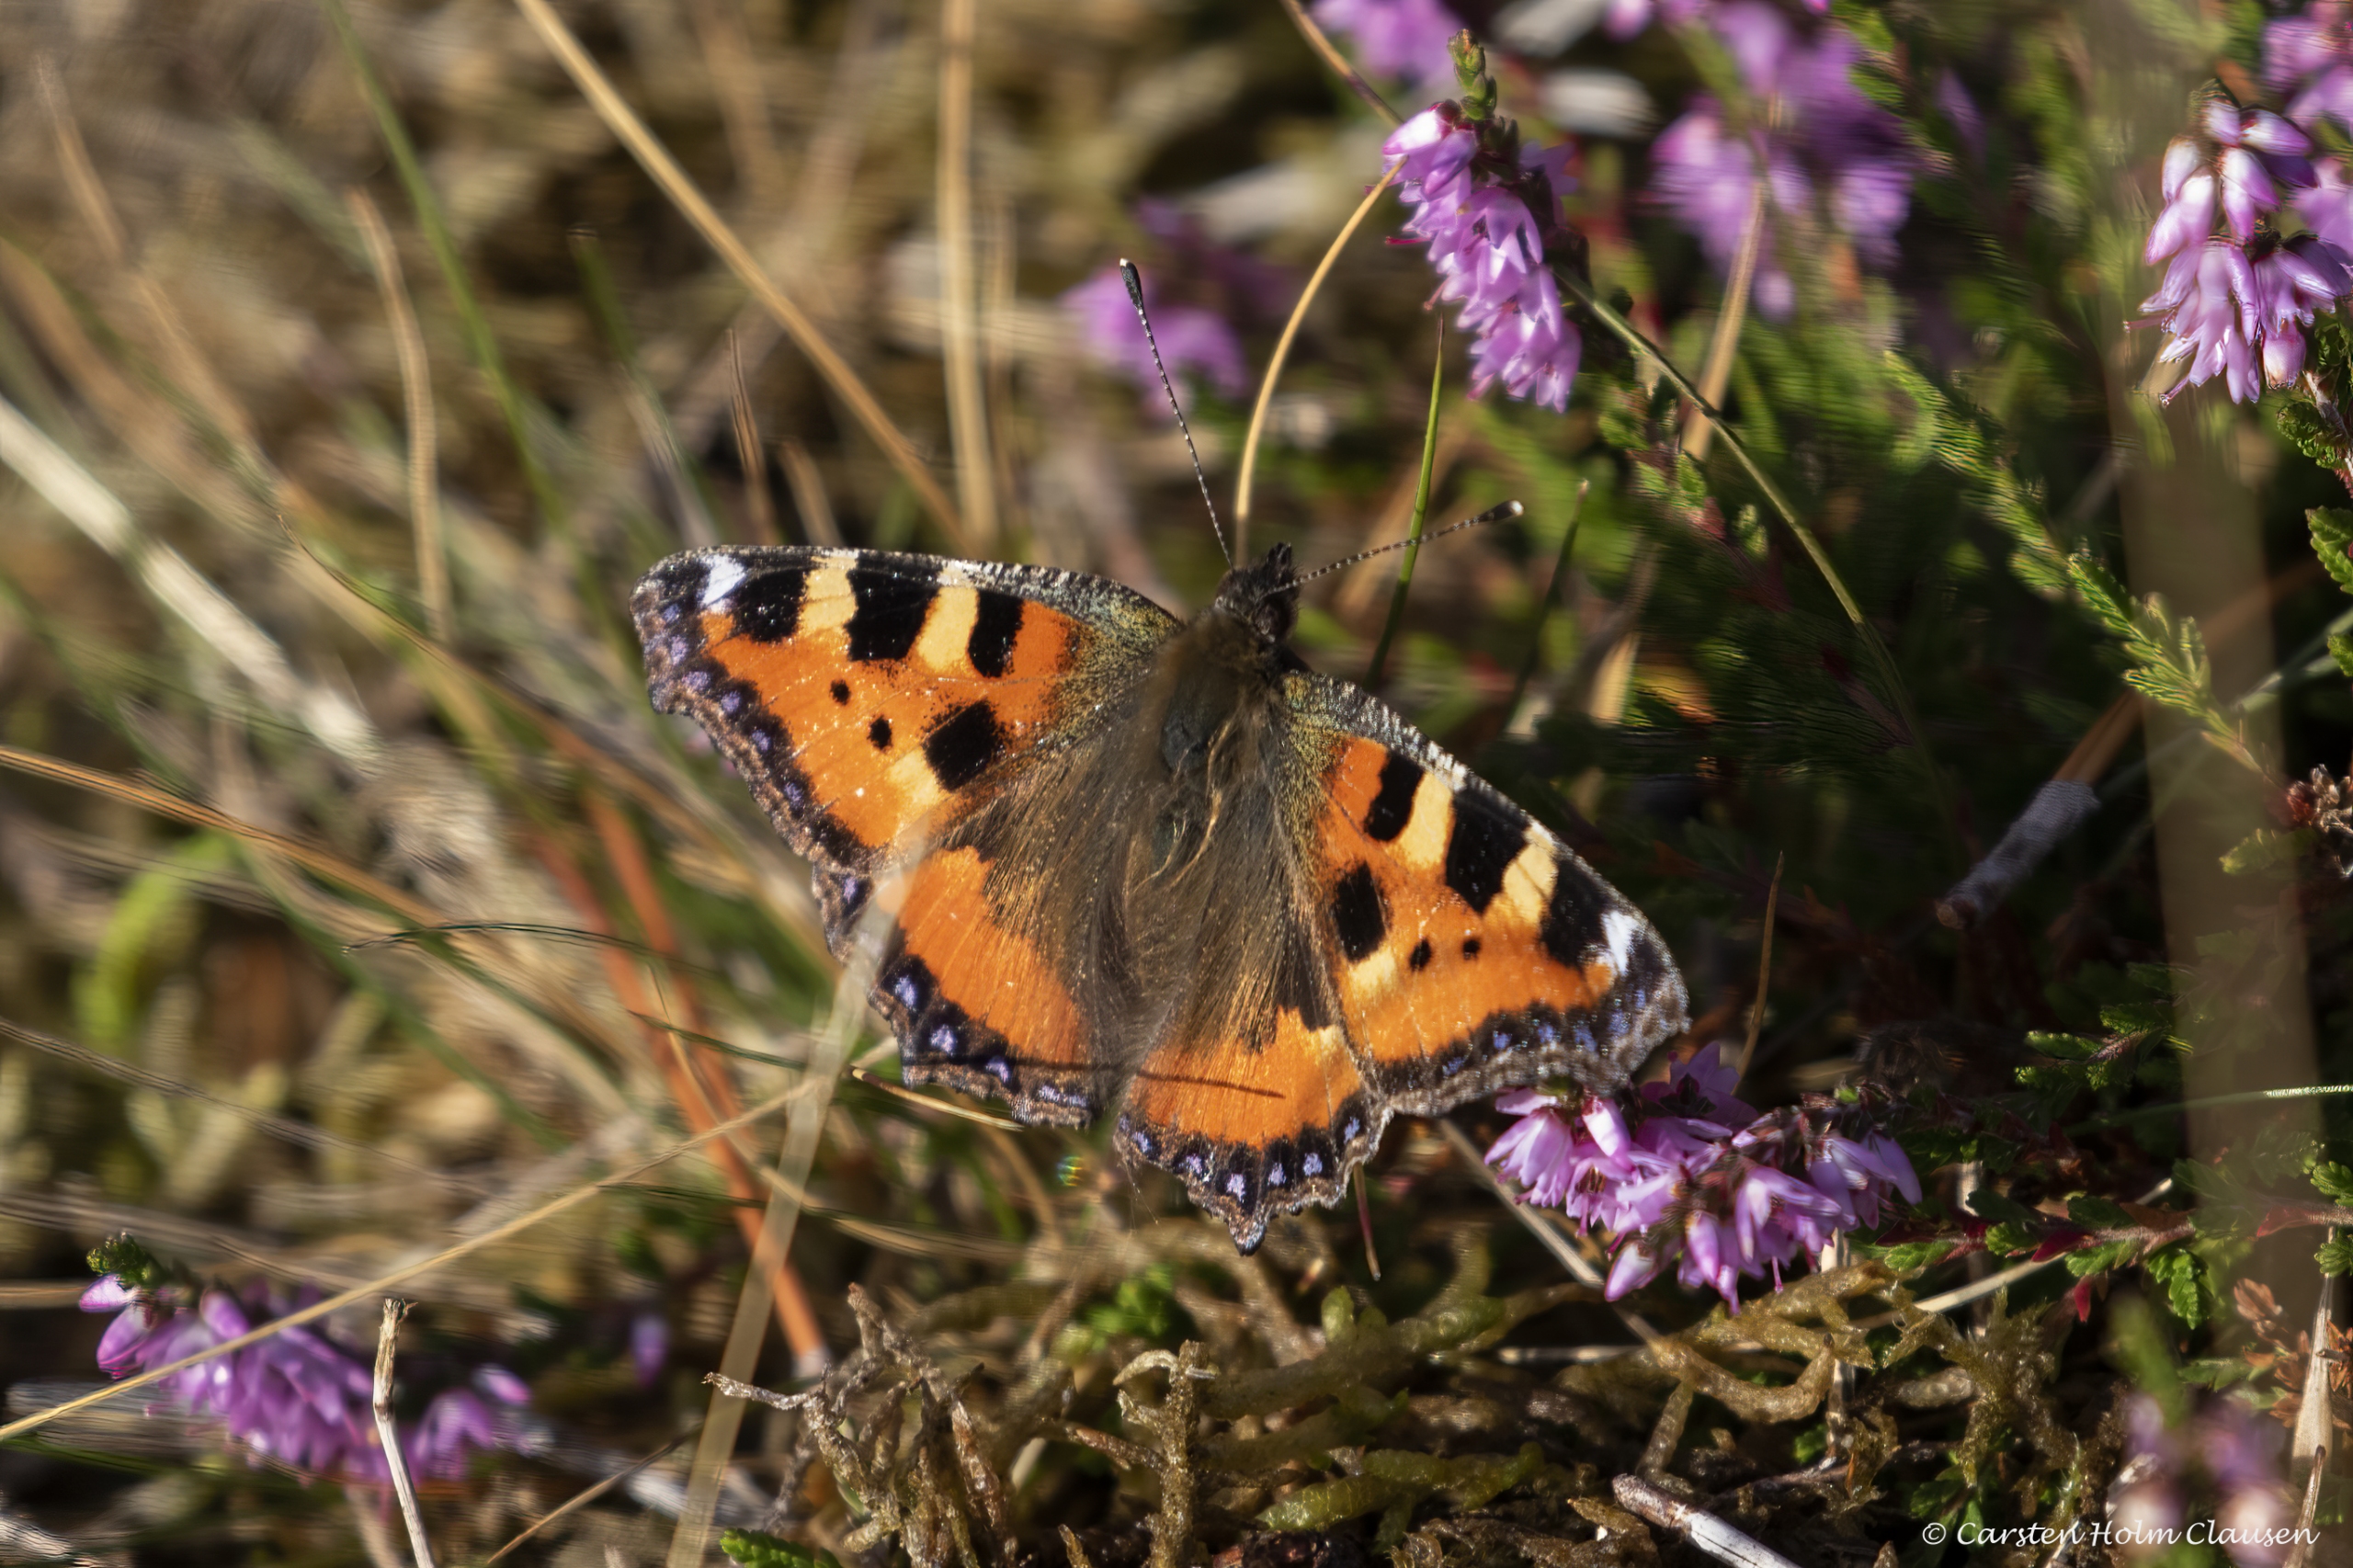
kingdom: Animalia
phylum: Arthropoda
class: Insecta
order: Lepidoptera
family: Nymphalidae
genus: Aglais
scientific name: Aglais urticae
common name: Nældens takvinge
